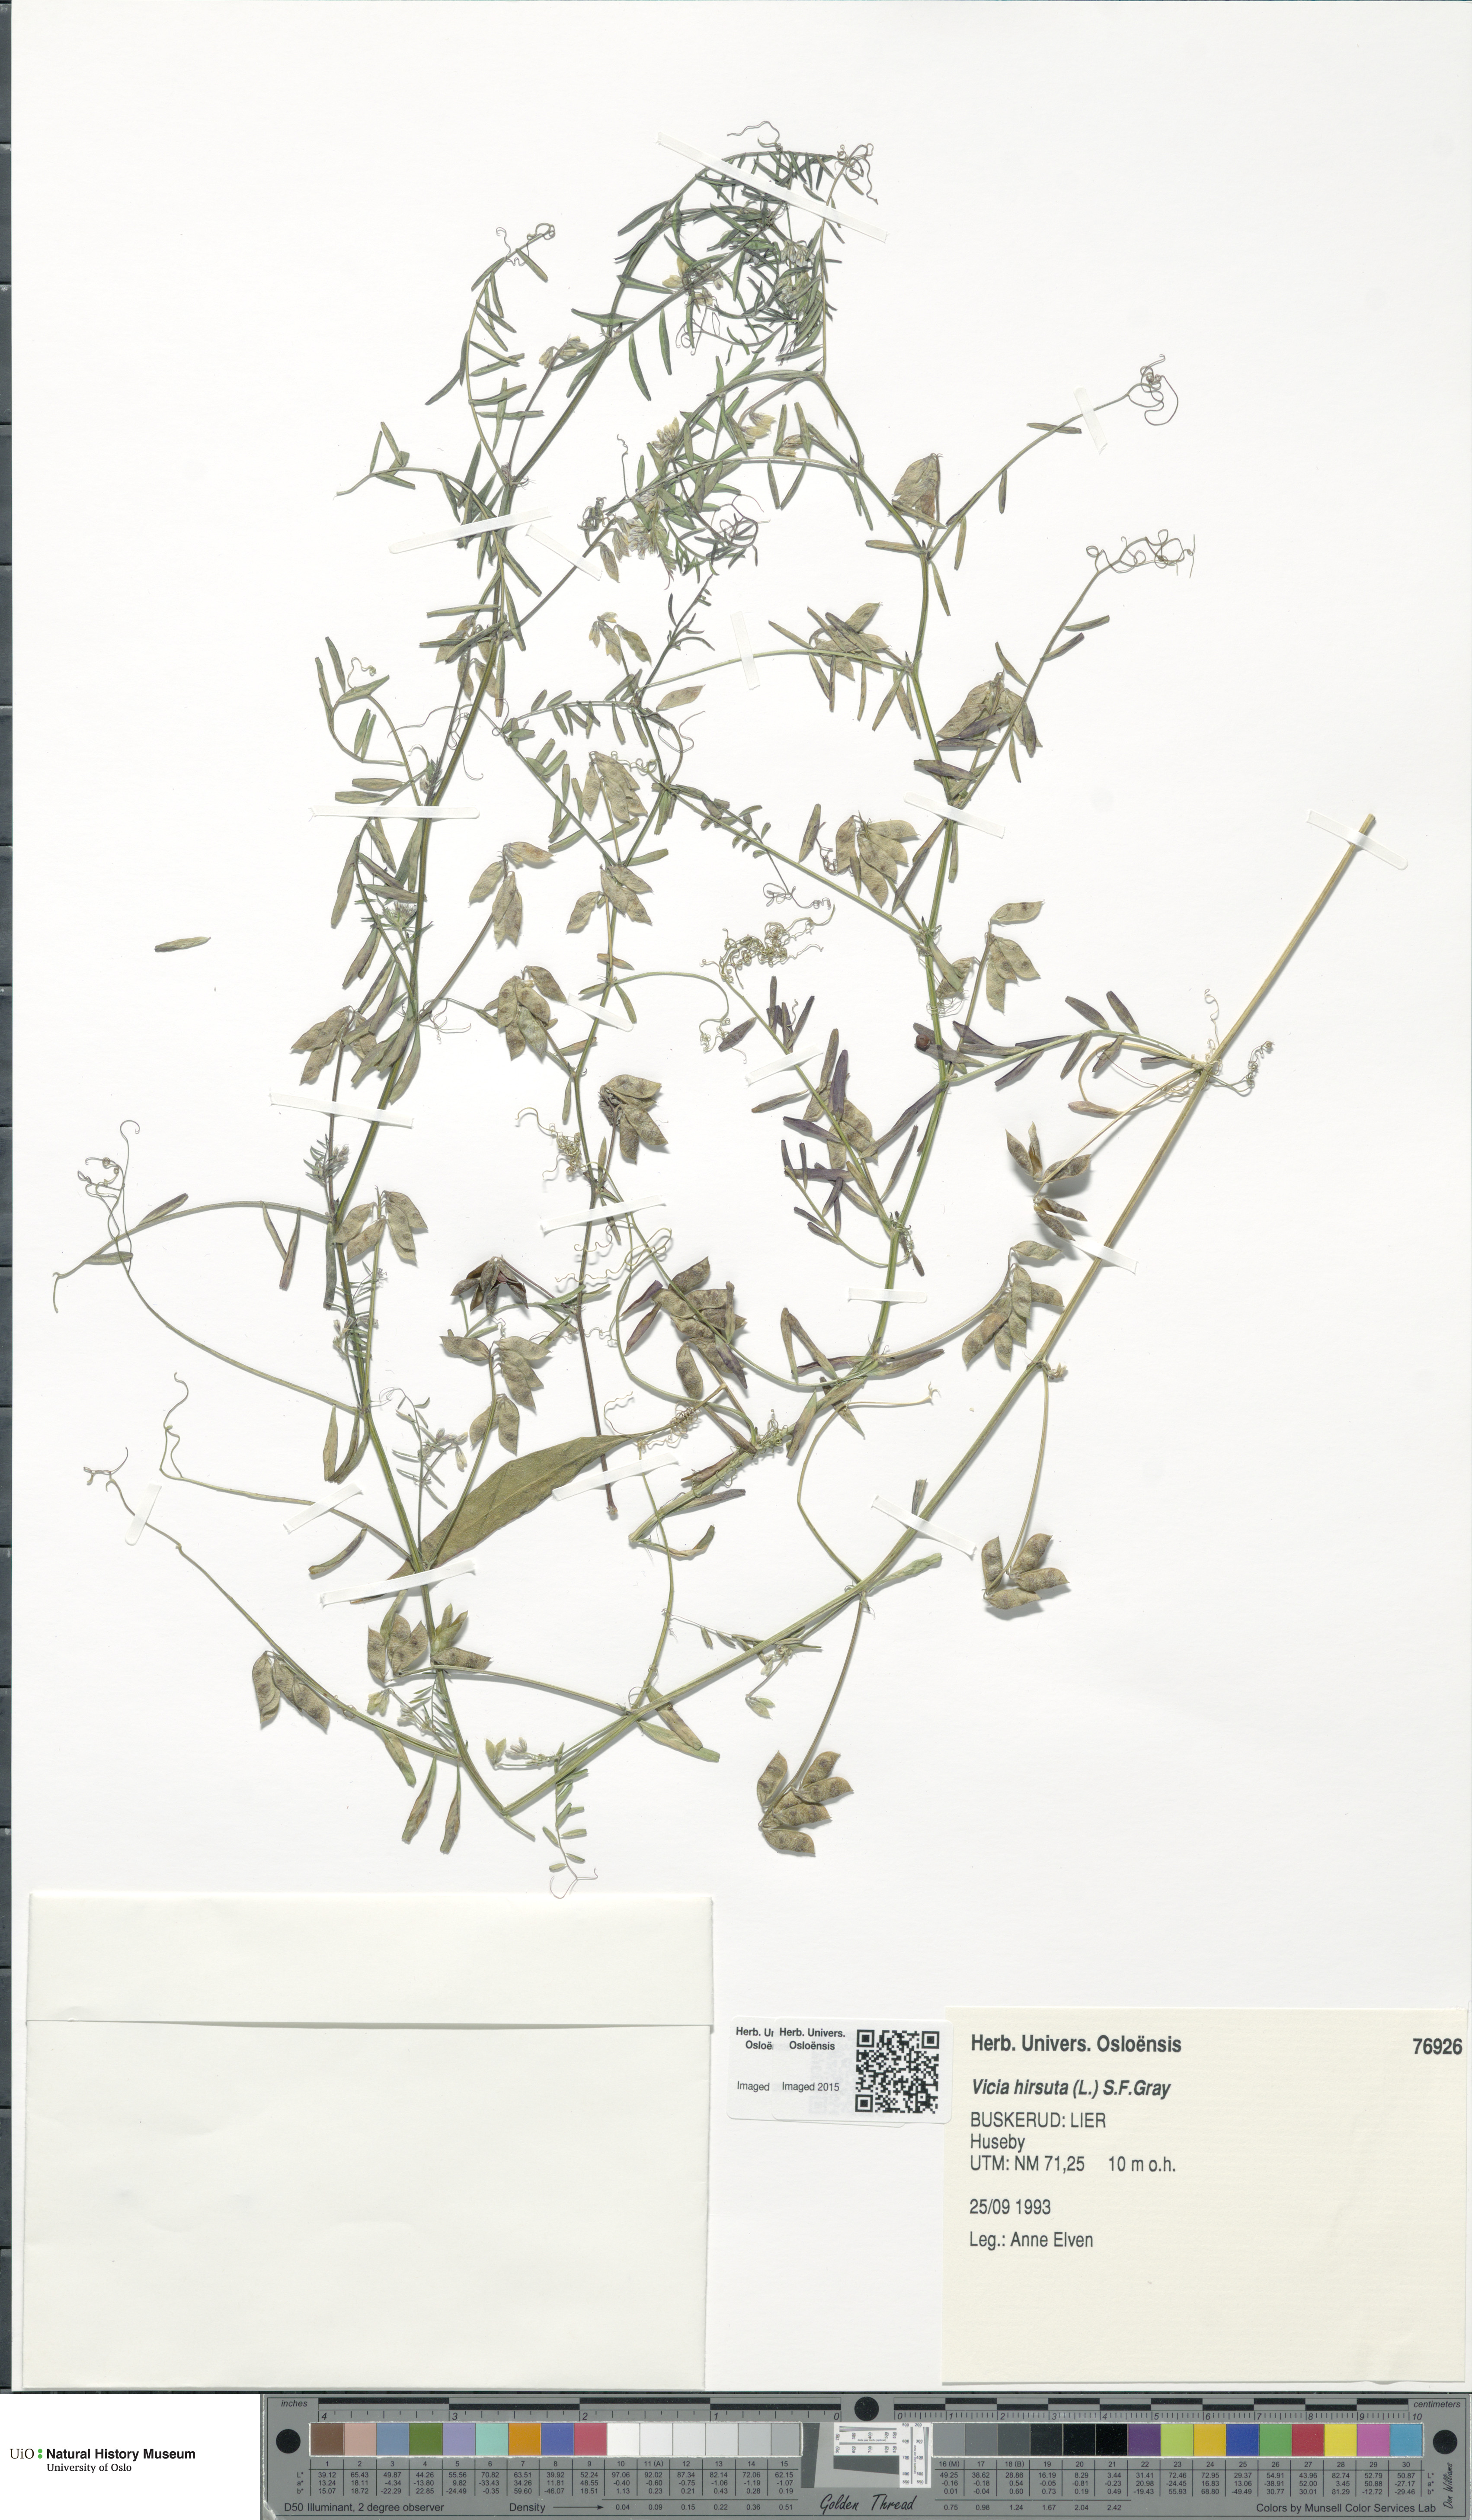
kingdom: Plantae
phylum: Tracheophyta
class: Magnoliopsida
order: Fabales
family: Fabaceae
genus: Vicia
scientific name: Vicia hirsuta
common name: Tiny vetch
